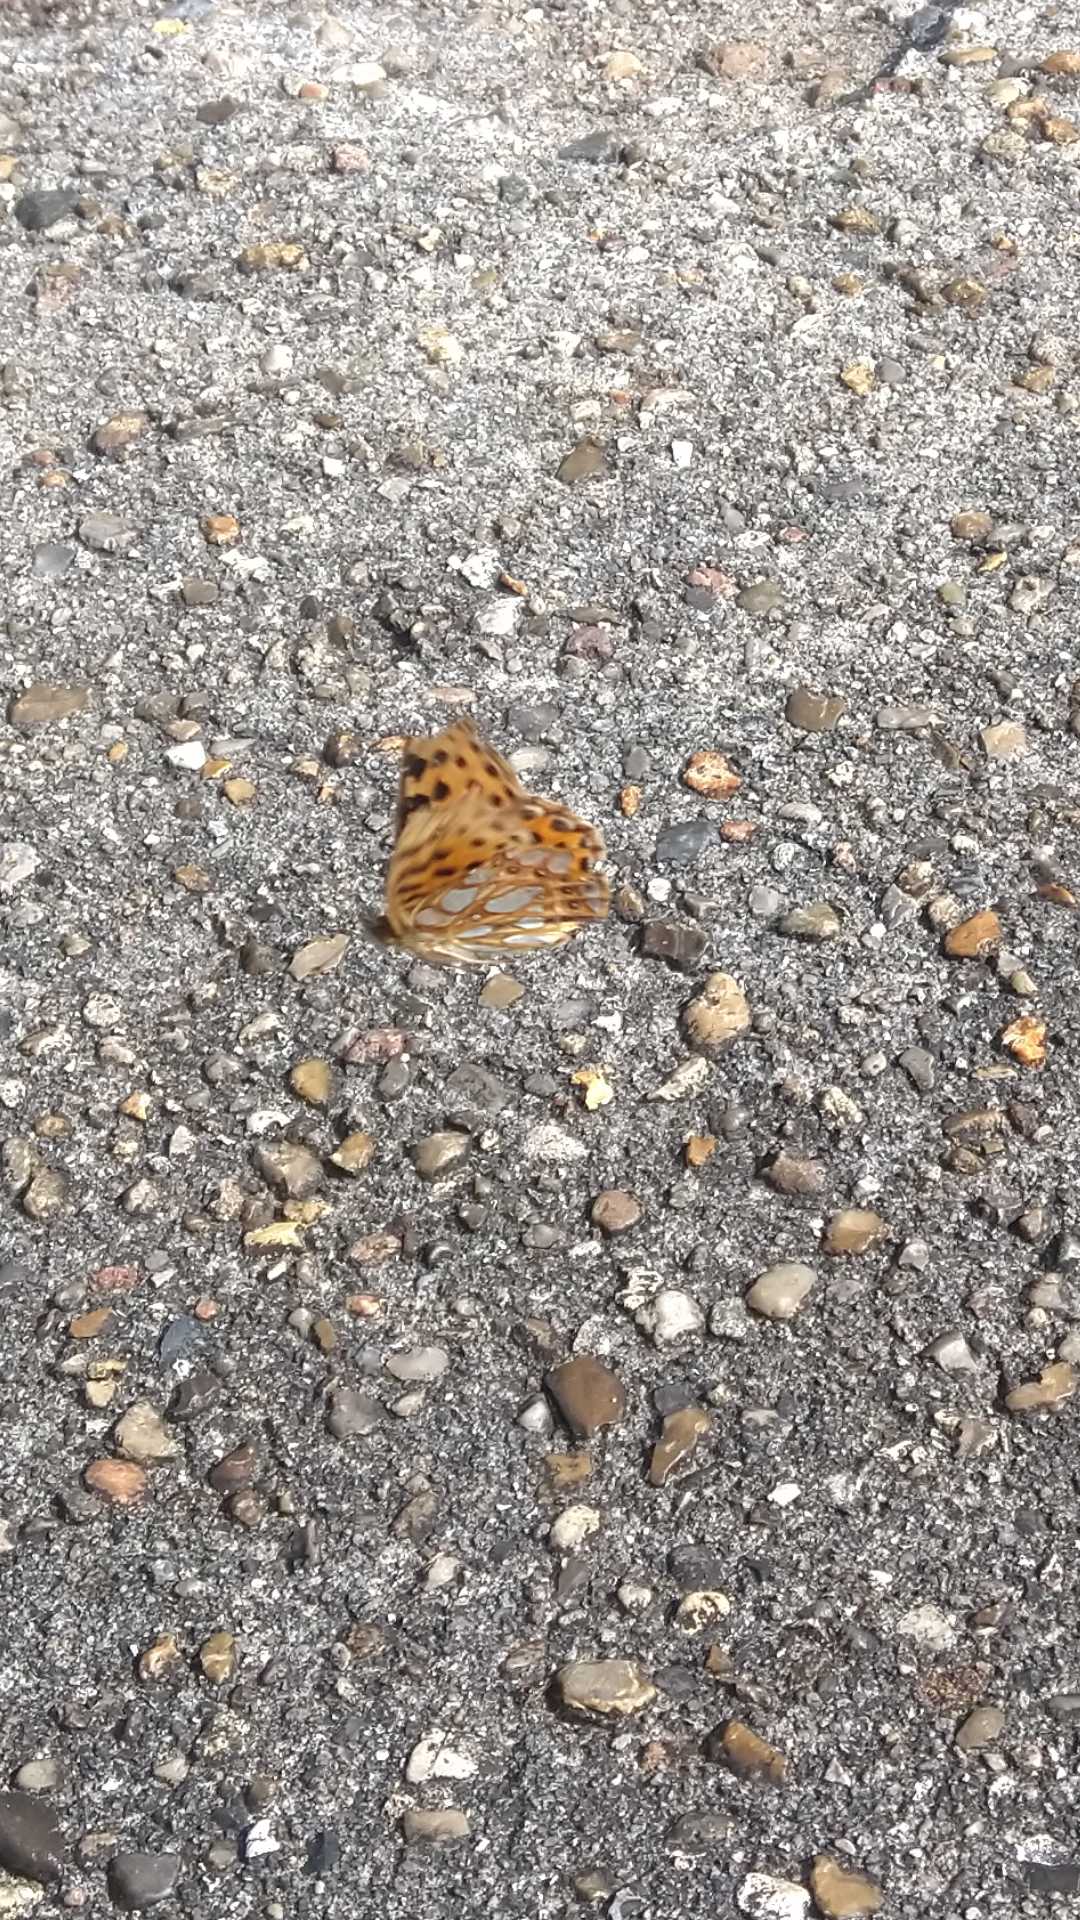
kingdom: Animalia
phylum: Arthropoda
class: Insecta
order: Lepidoptera
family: Nymphalidae
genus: Issoria
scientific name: Issoria lathonia
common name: Storplettet perlemorsommerfugl
